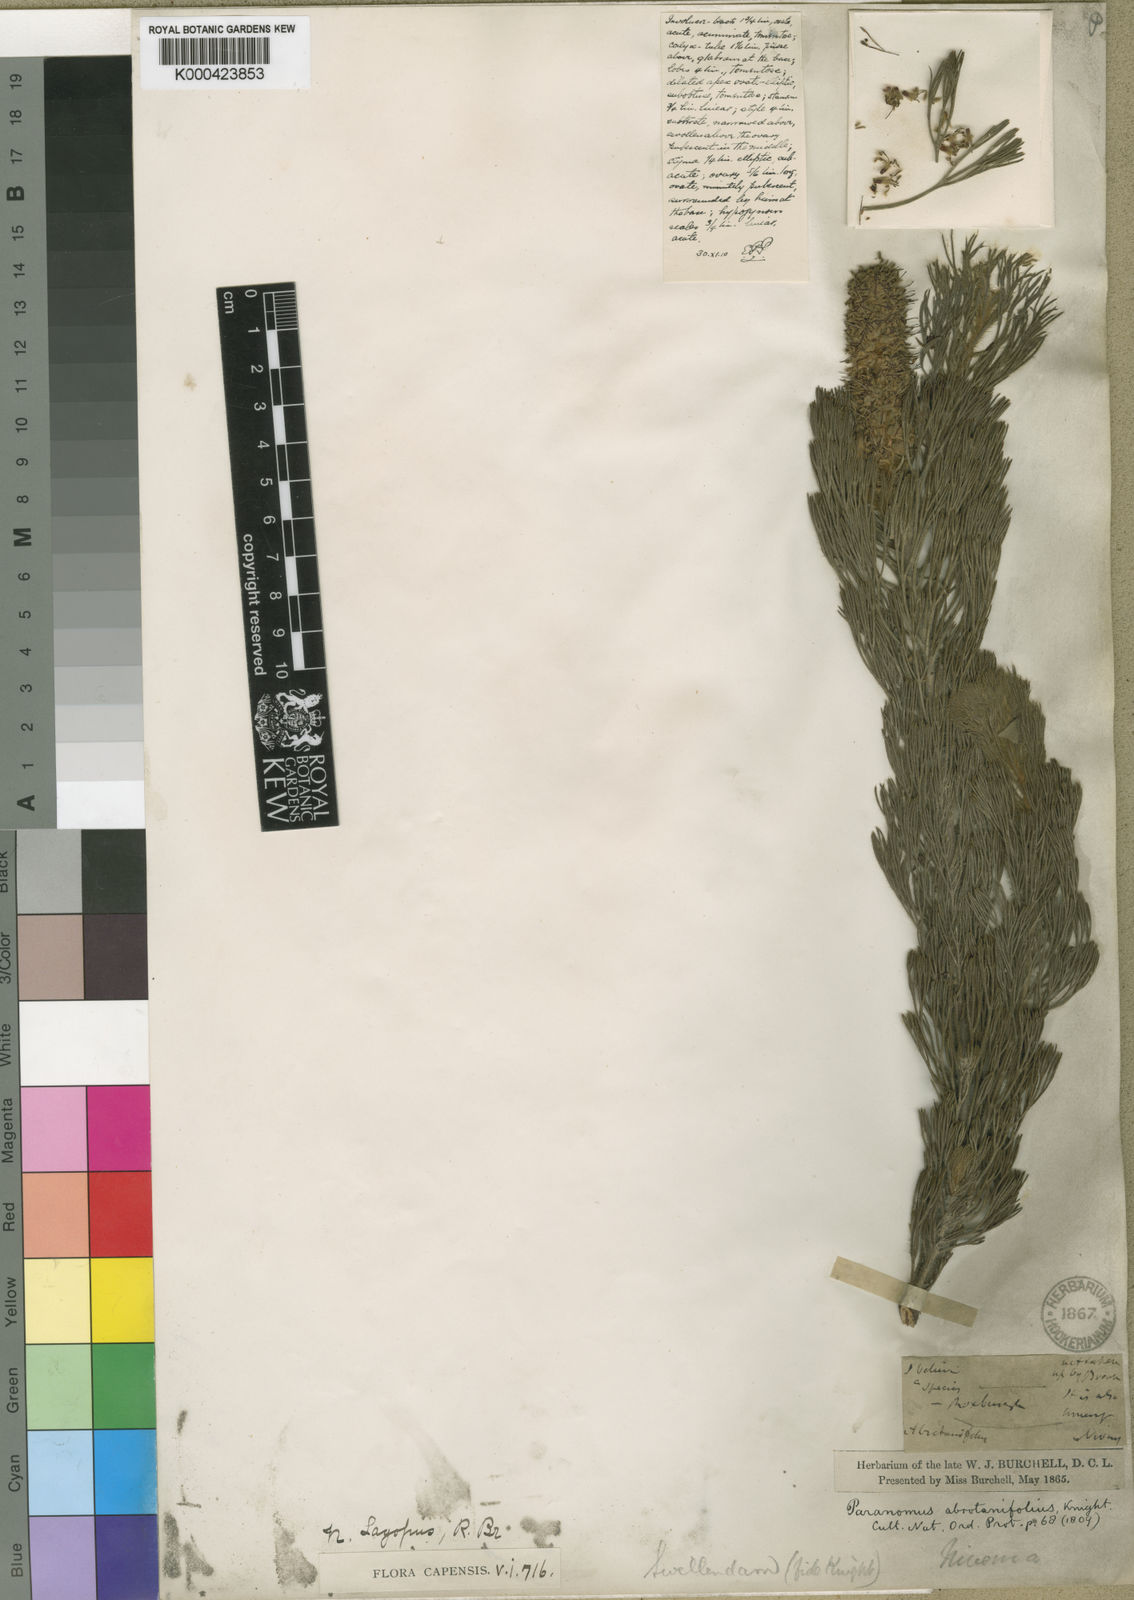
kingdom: Plantae
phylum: Tracheophyta
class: Magnoliopsida
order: Proteales
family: Proteaceae
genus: Paranomus
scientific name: Paranomus
